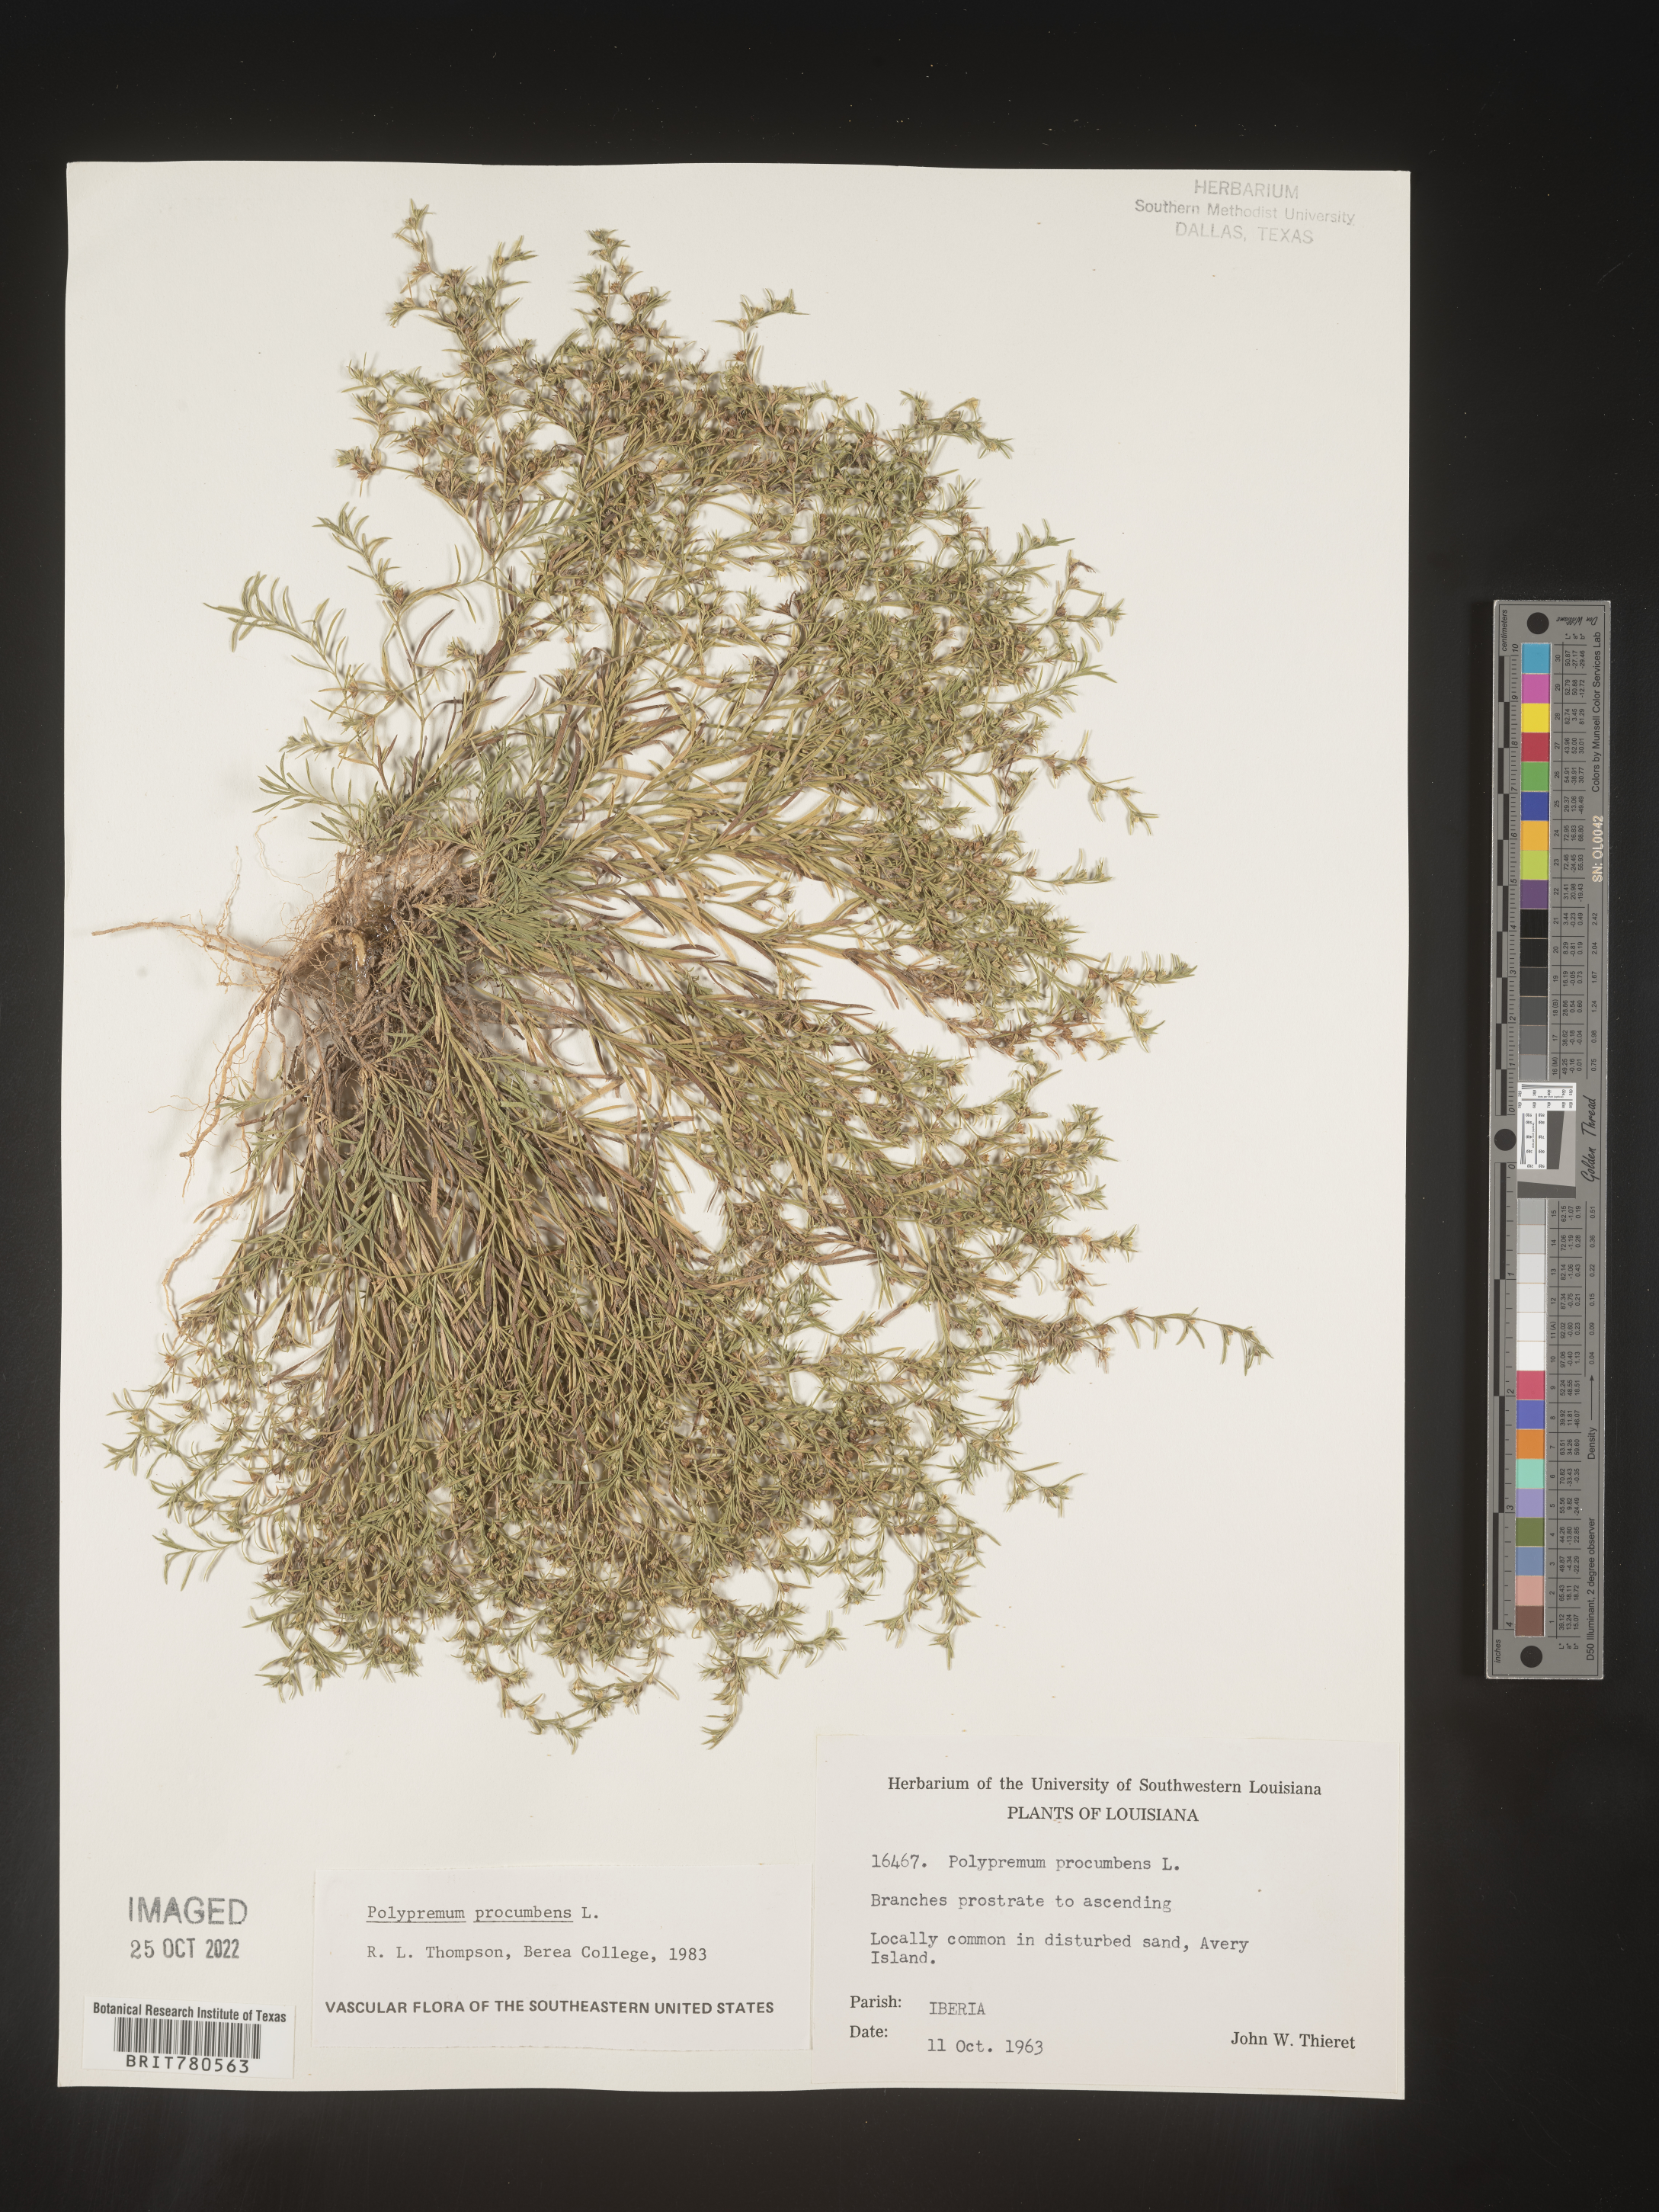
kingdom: Plantae
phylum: Tracheophyta
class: Magnoliopsida
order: Lamiales
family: Tetrachondraceae
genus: Polypremum
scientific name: Polypremum procumbens
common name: Juniper-leaf
